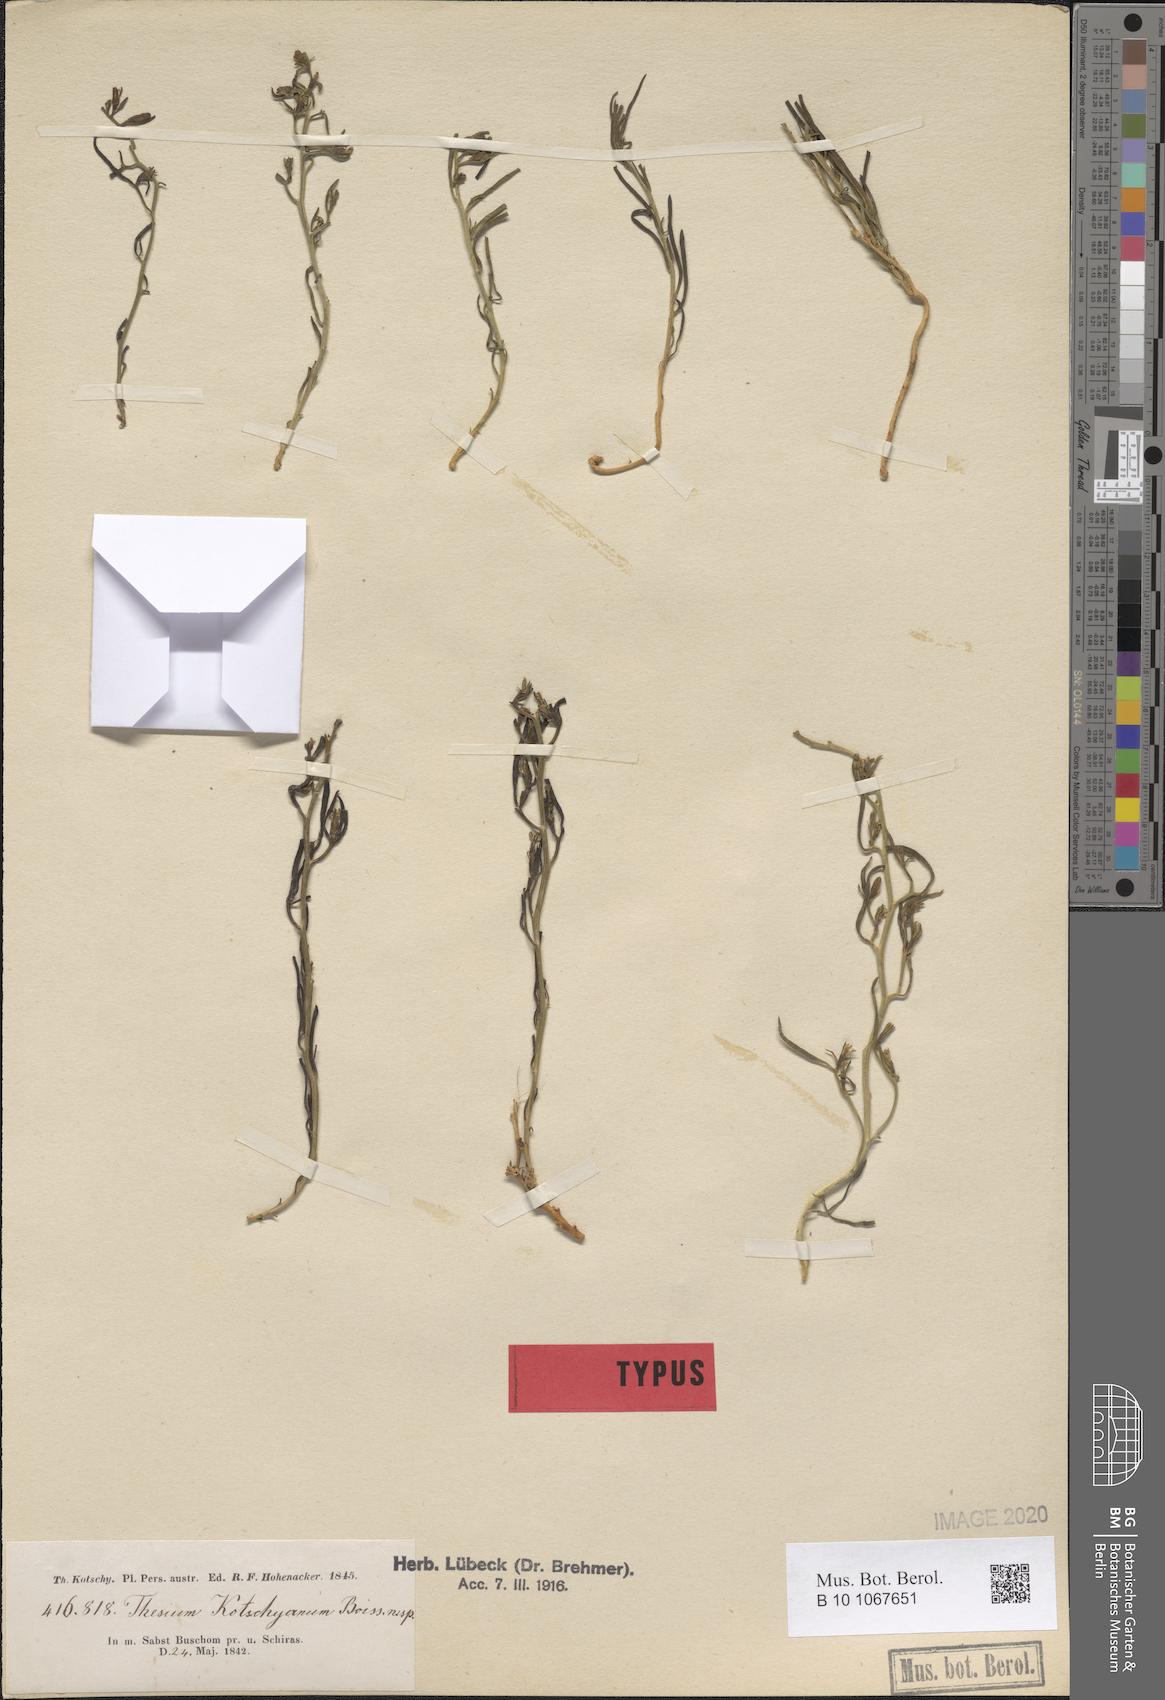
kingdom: Plantae
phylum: Tracheophyta
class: Magnoliopsida
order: Santalales
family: Thesiaceae
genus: Thesium
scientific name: Thesium kotschyanum
